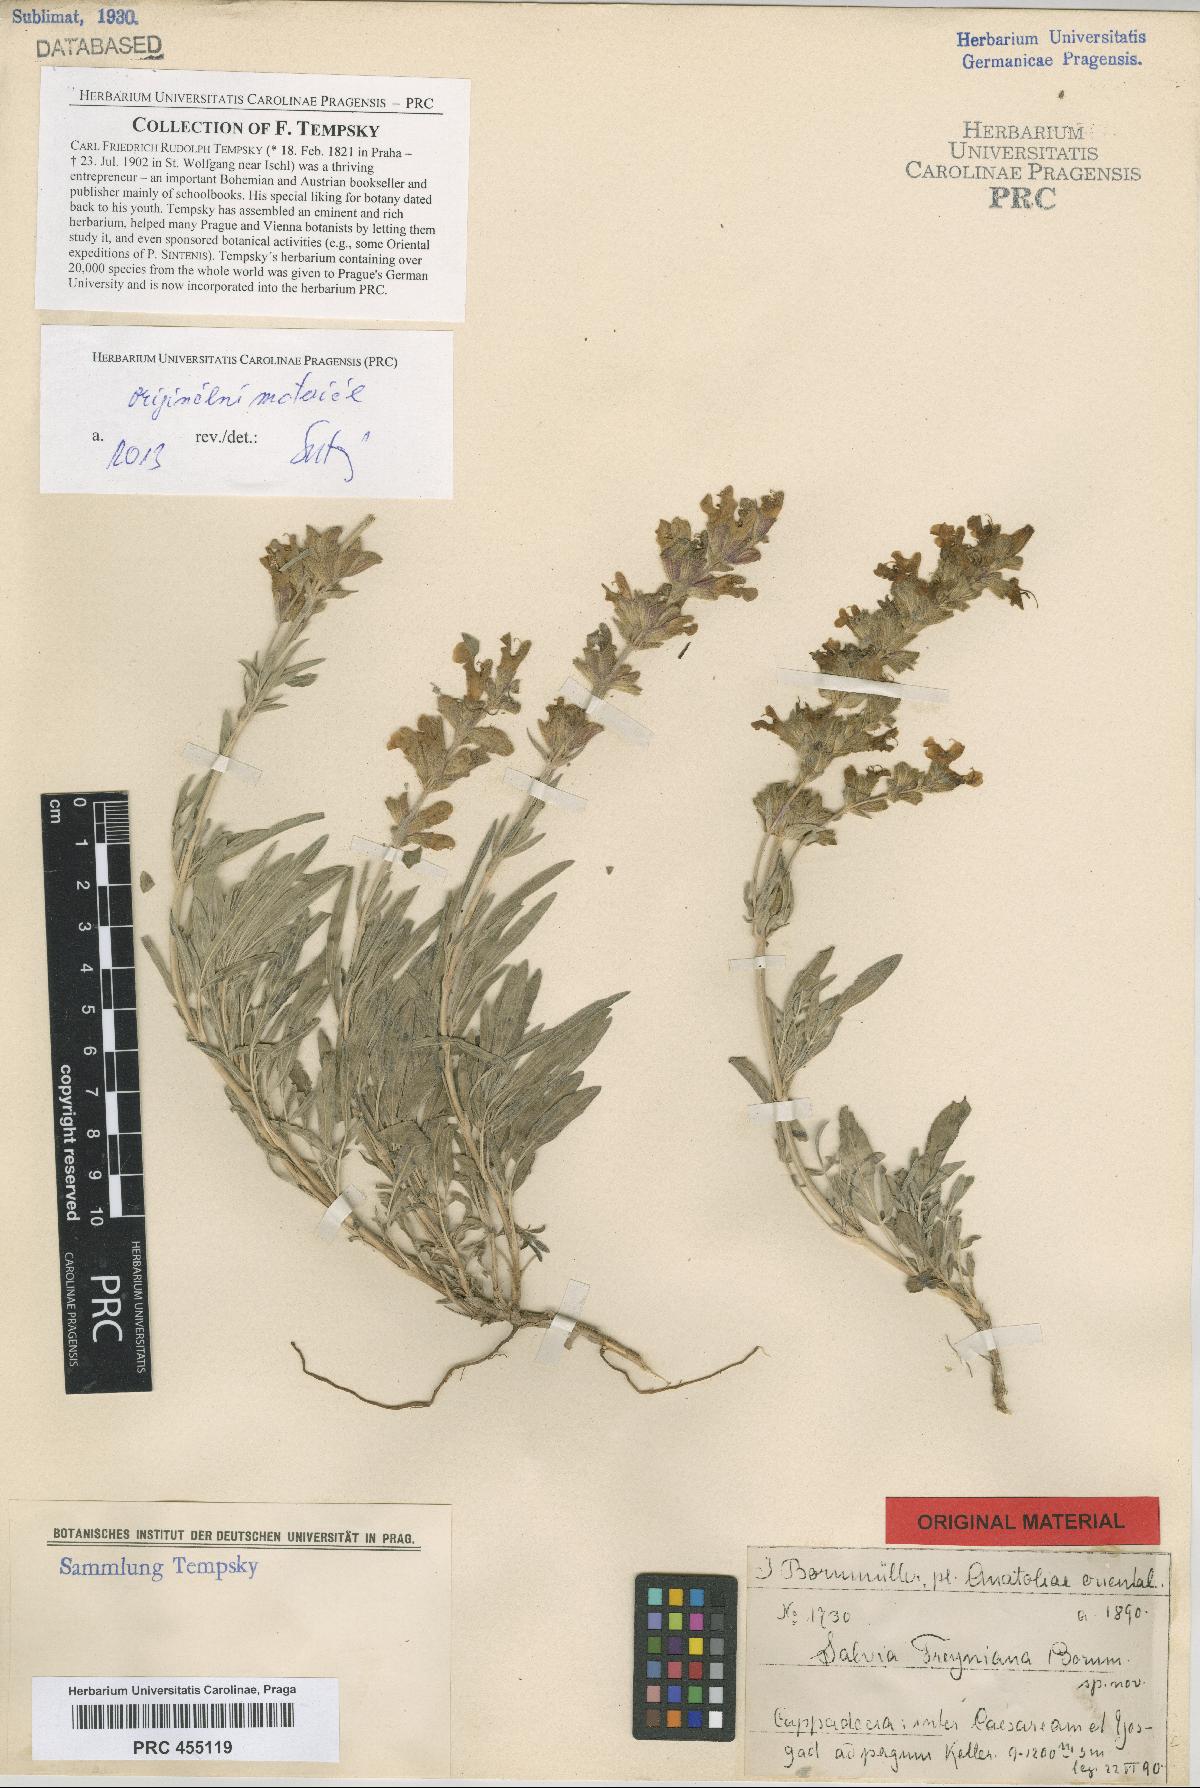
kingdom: Plantae
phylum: Tracheophyta
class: Magnoliopsida
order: Lamiales
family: Lamiaceae
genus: Salvia
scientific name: Salvia freyniana
